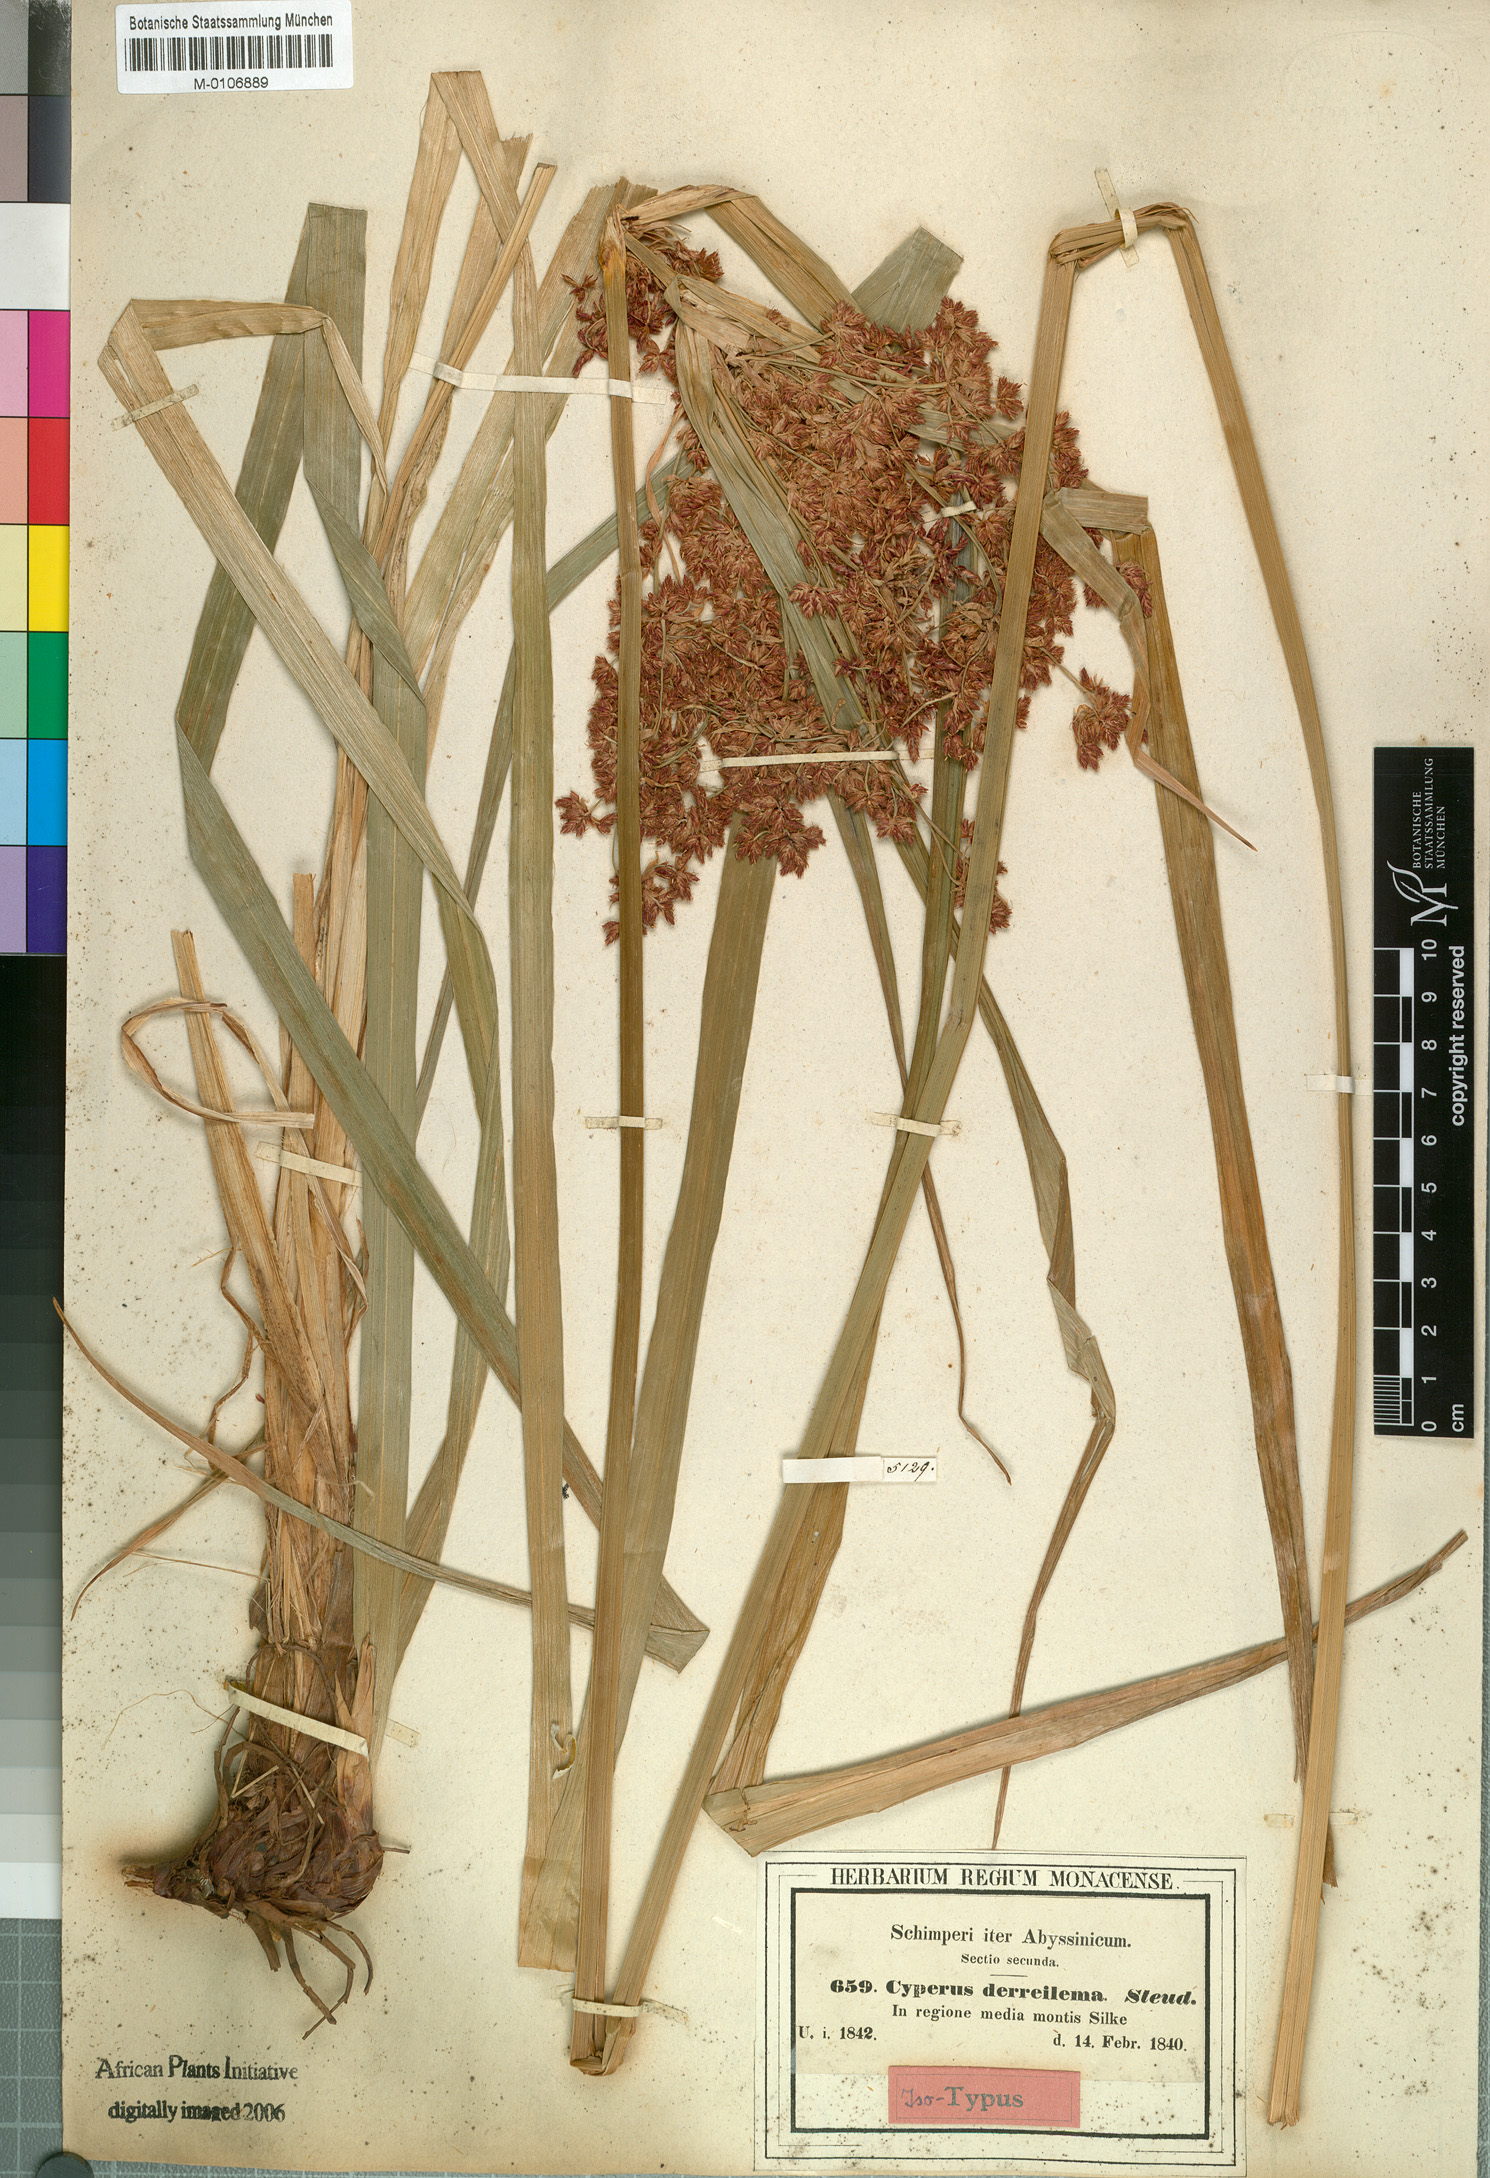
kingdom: Plantae
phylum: Tracheophyta
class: Liliopsida
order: Poales
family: Cyperaceae
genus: Cyperus
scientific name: Cyperus denudatus
